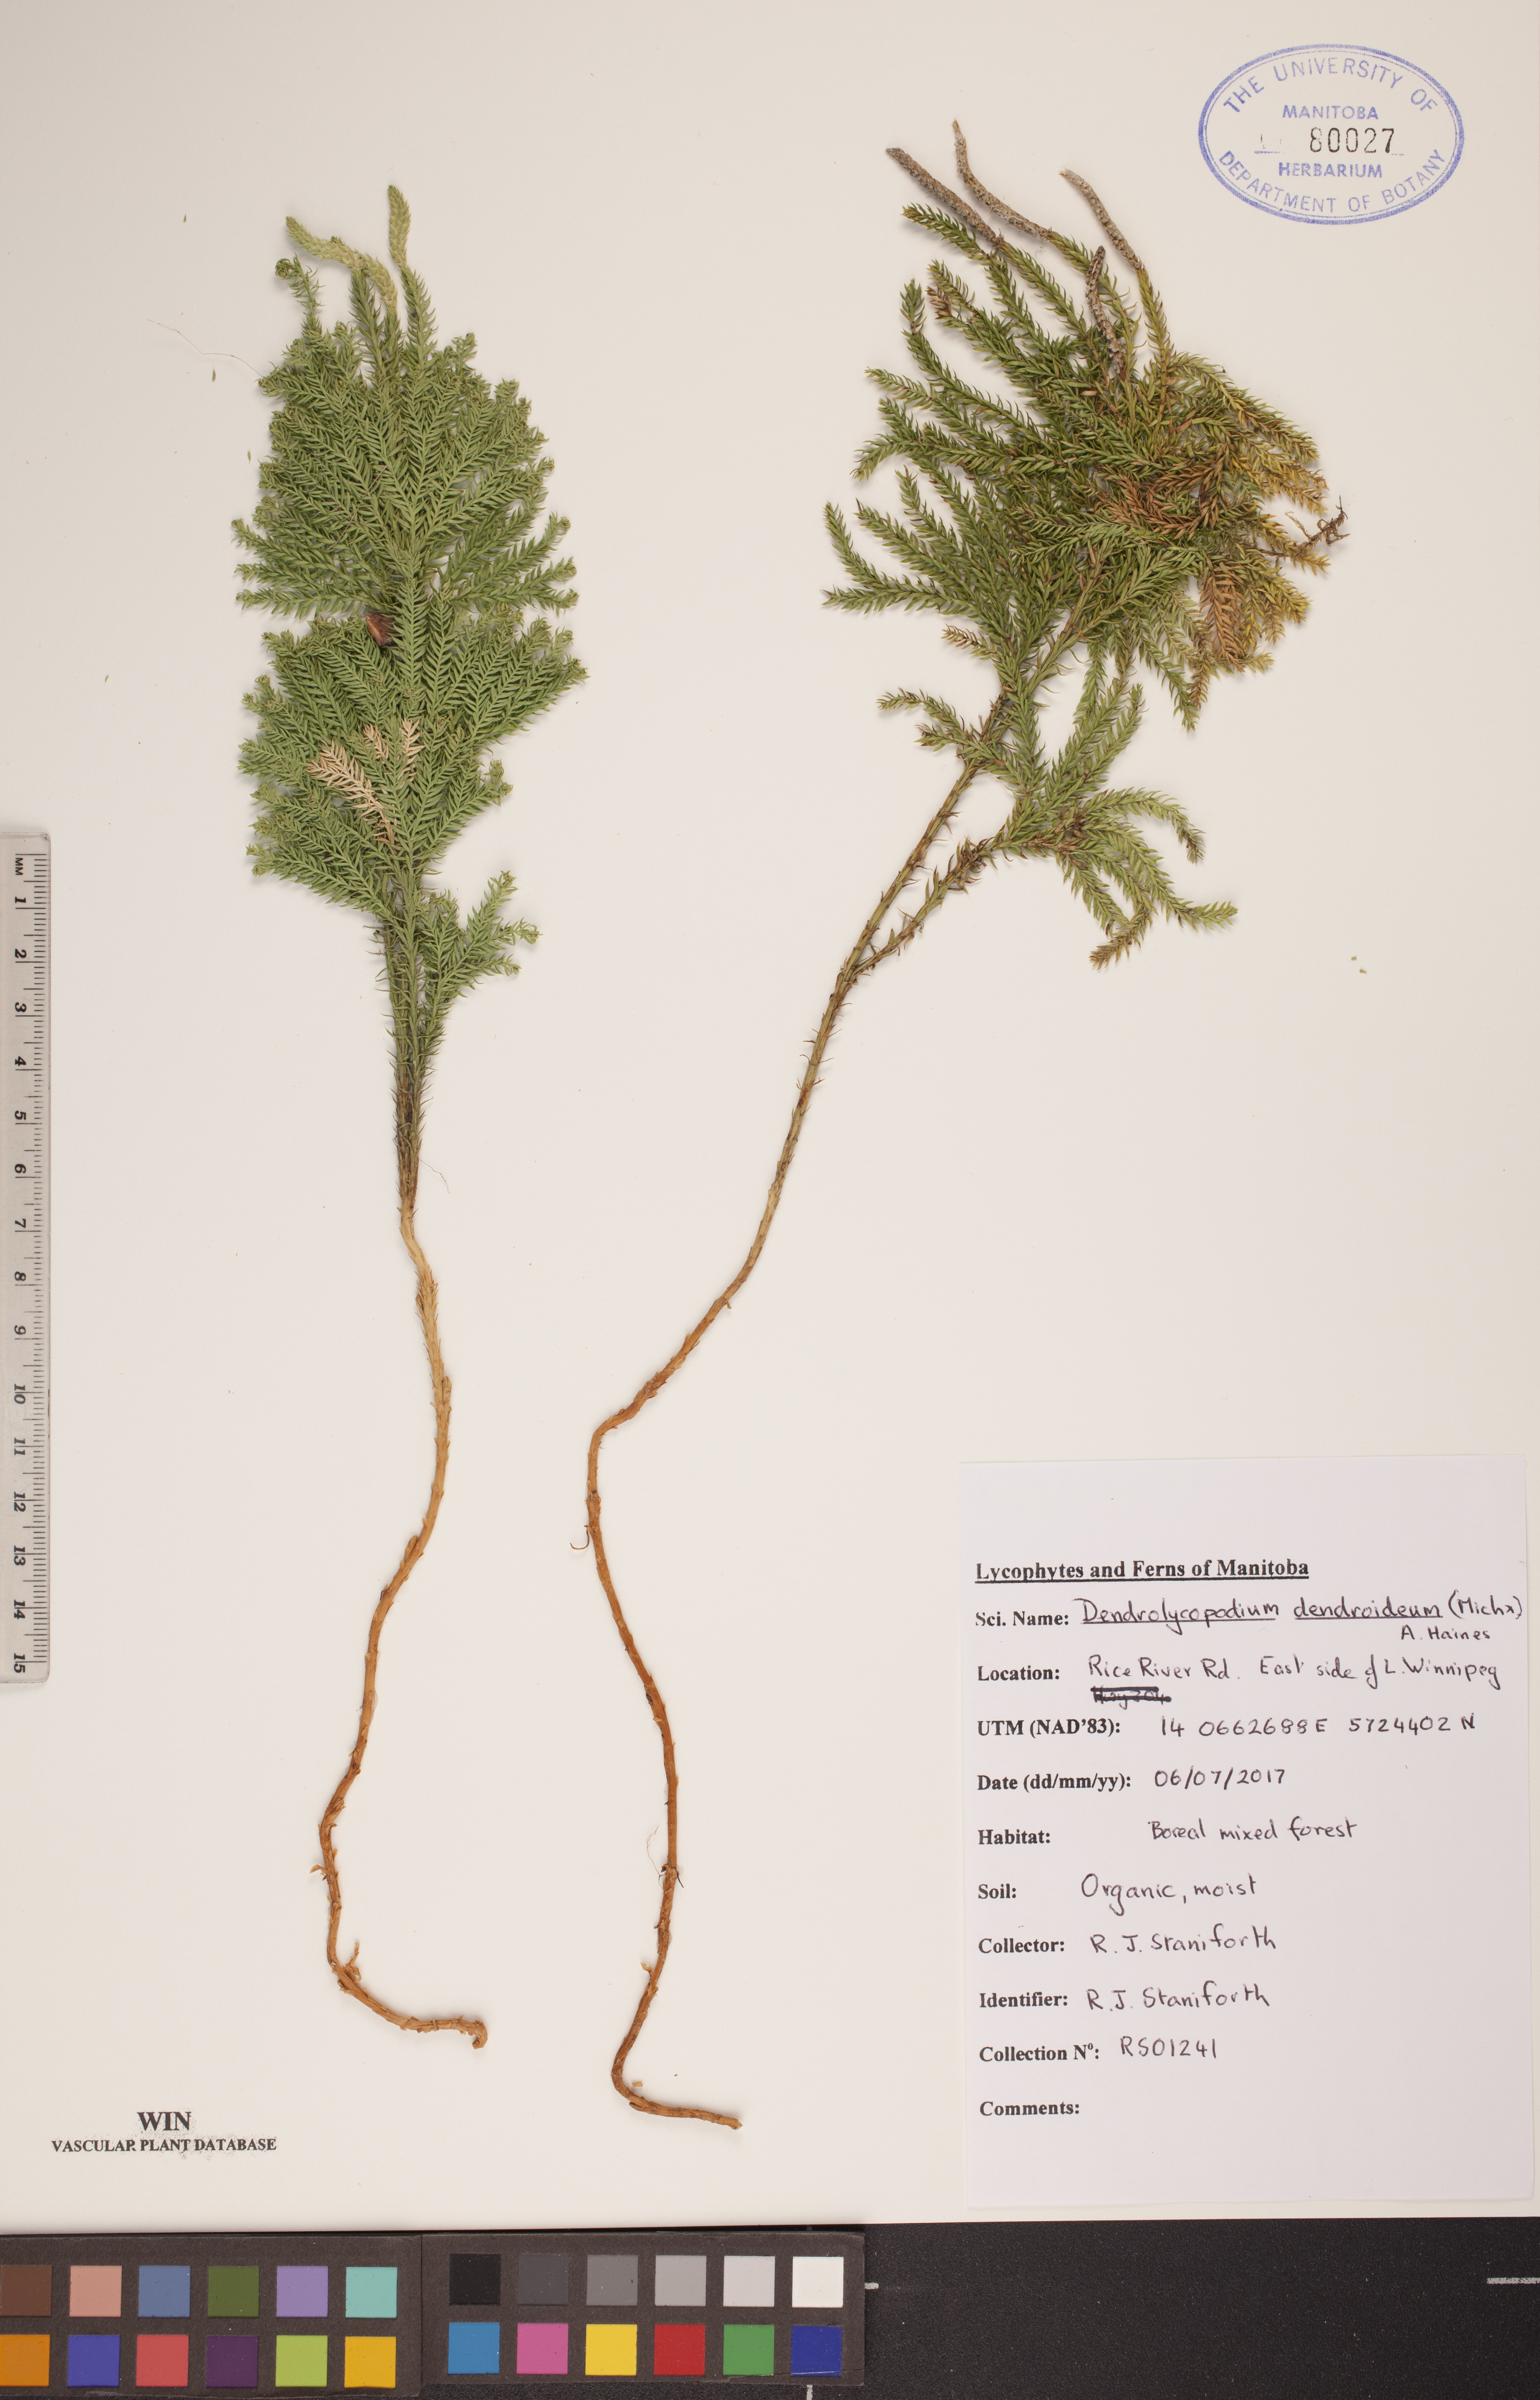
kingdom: Plantae
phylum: Tracheophyta
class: Lycopodiopsida
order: Lycopodiales
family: Lycopodiaceae
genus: Dendrolycopodium
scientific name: Dendrolycopodium dendroideum
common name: Northern tree-clubmoss
